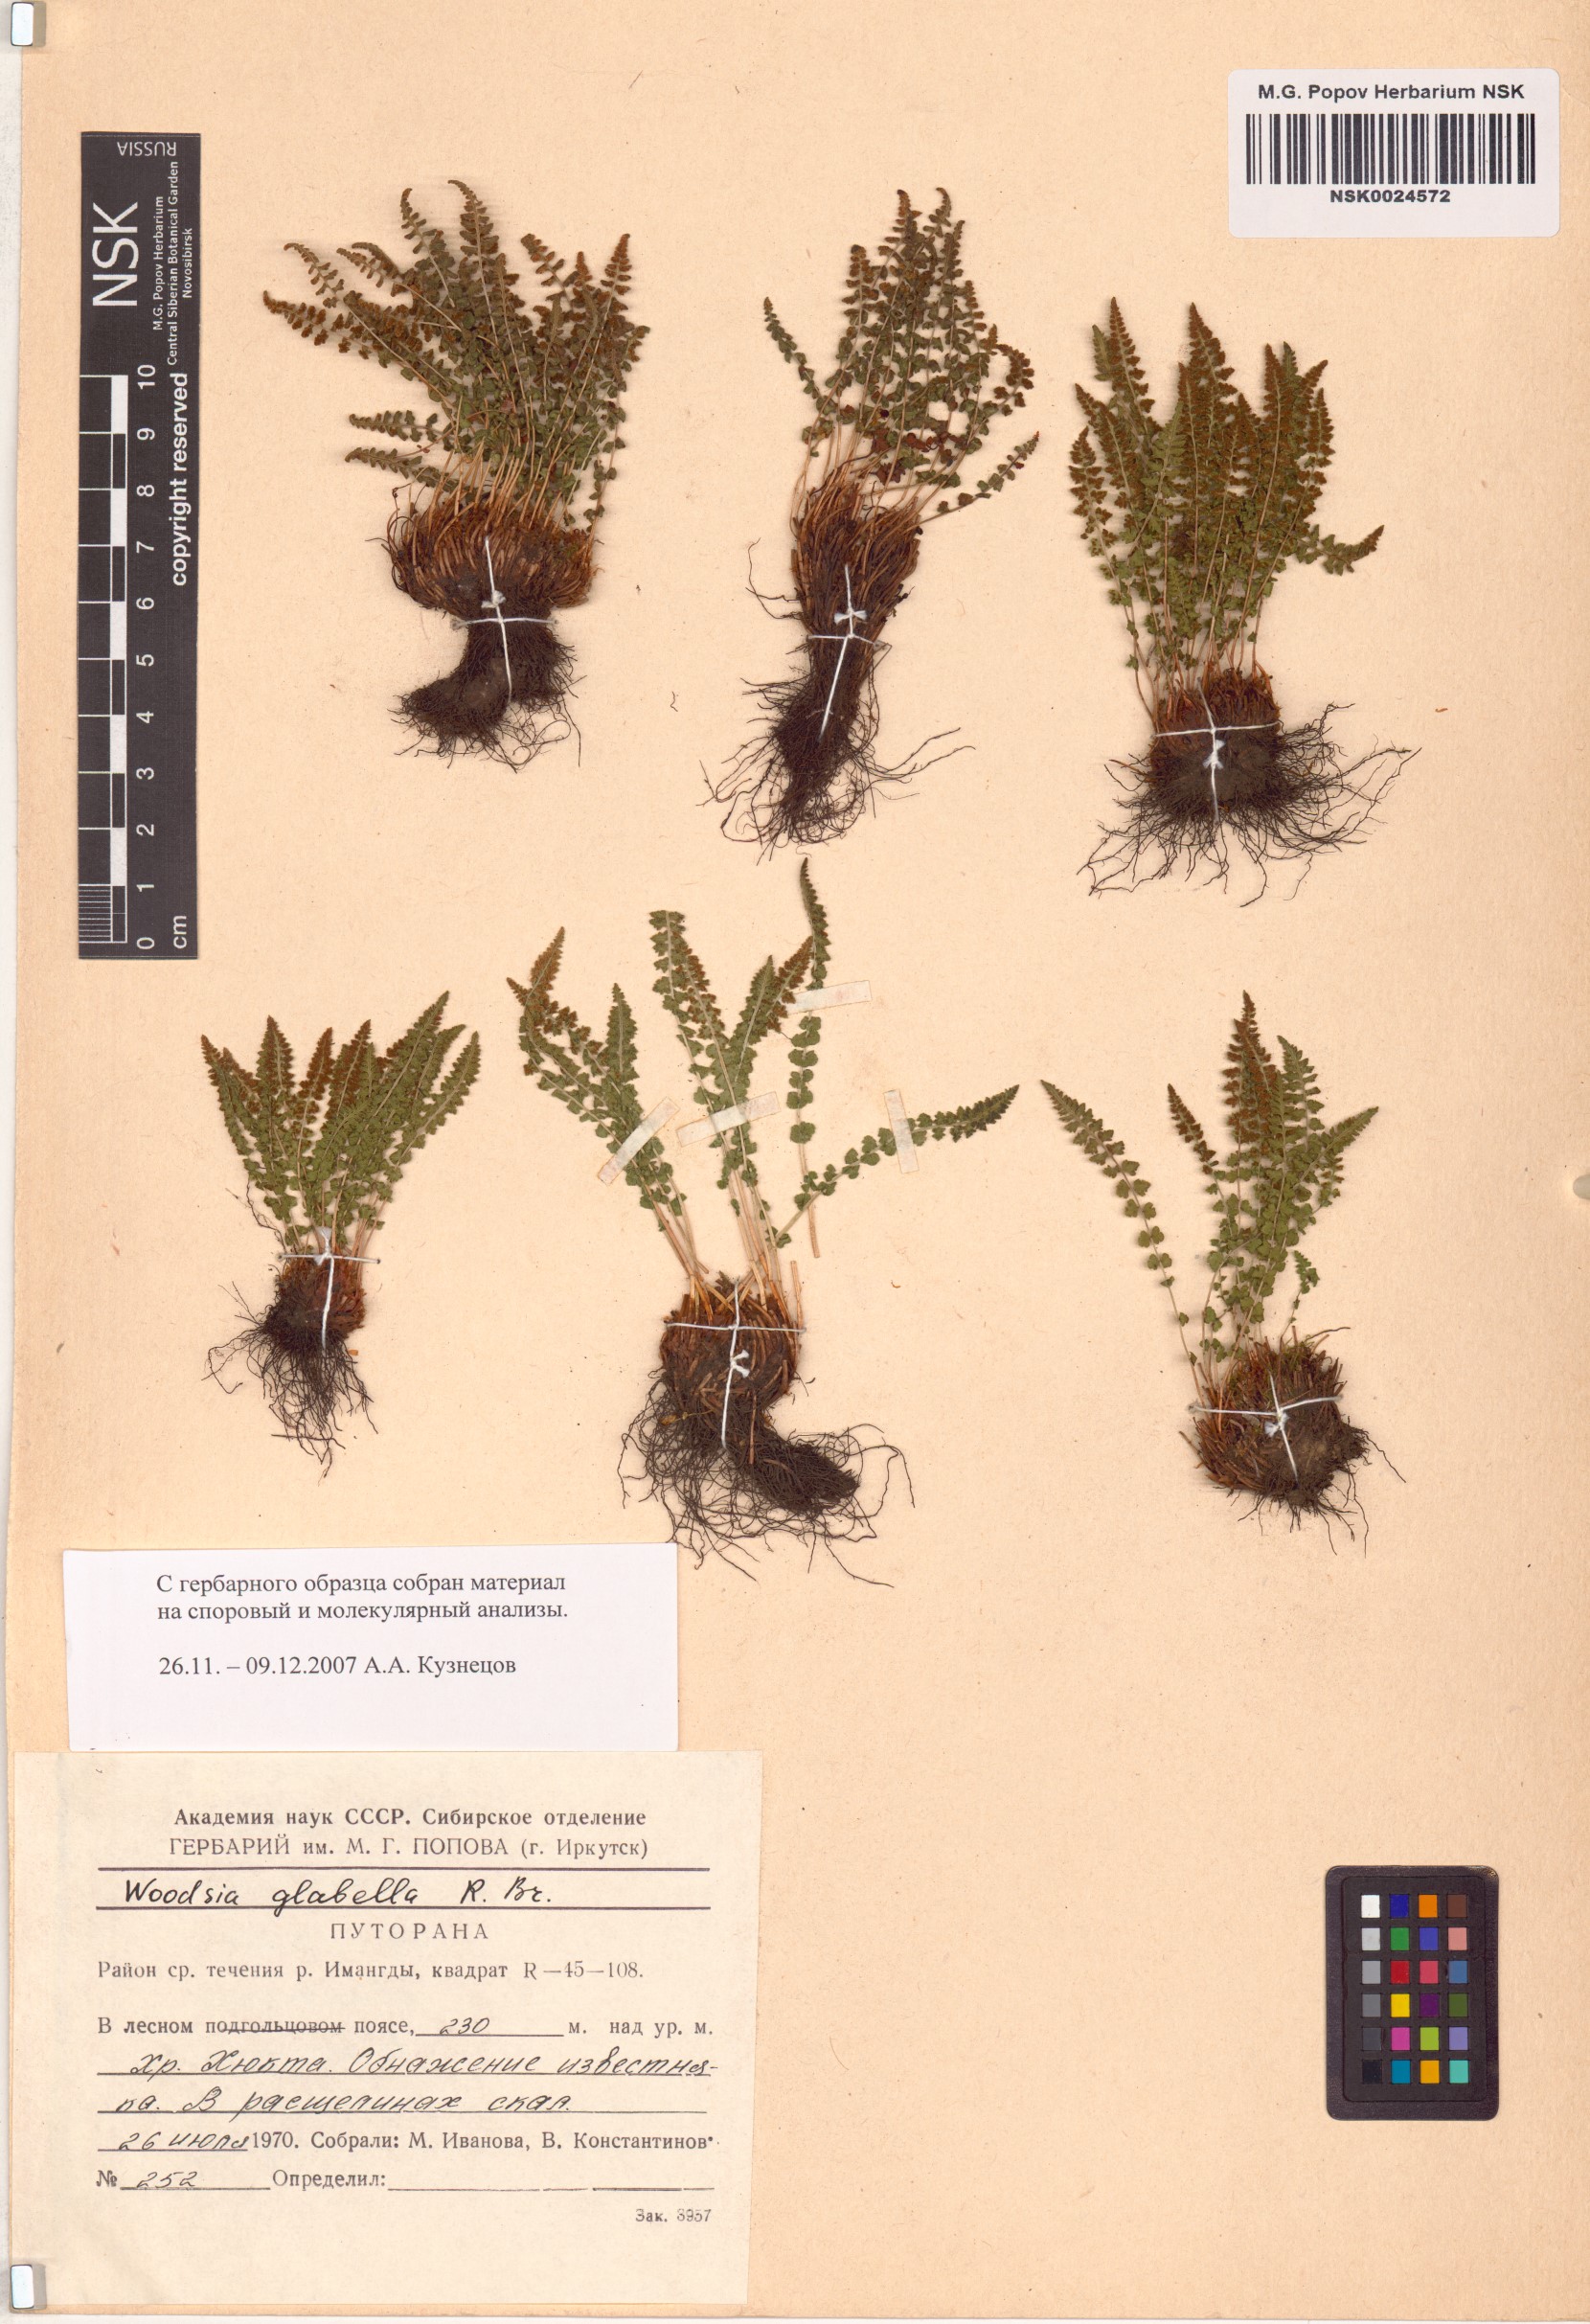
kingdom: Plantae
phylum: Tracheophyta
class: Polypodiopsida
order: Polypodiales
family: Woodsiaceae
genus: Woodsia
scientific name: Woodsia glabella
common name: Smooth woodsia
